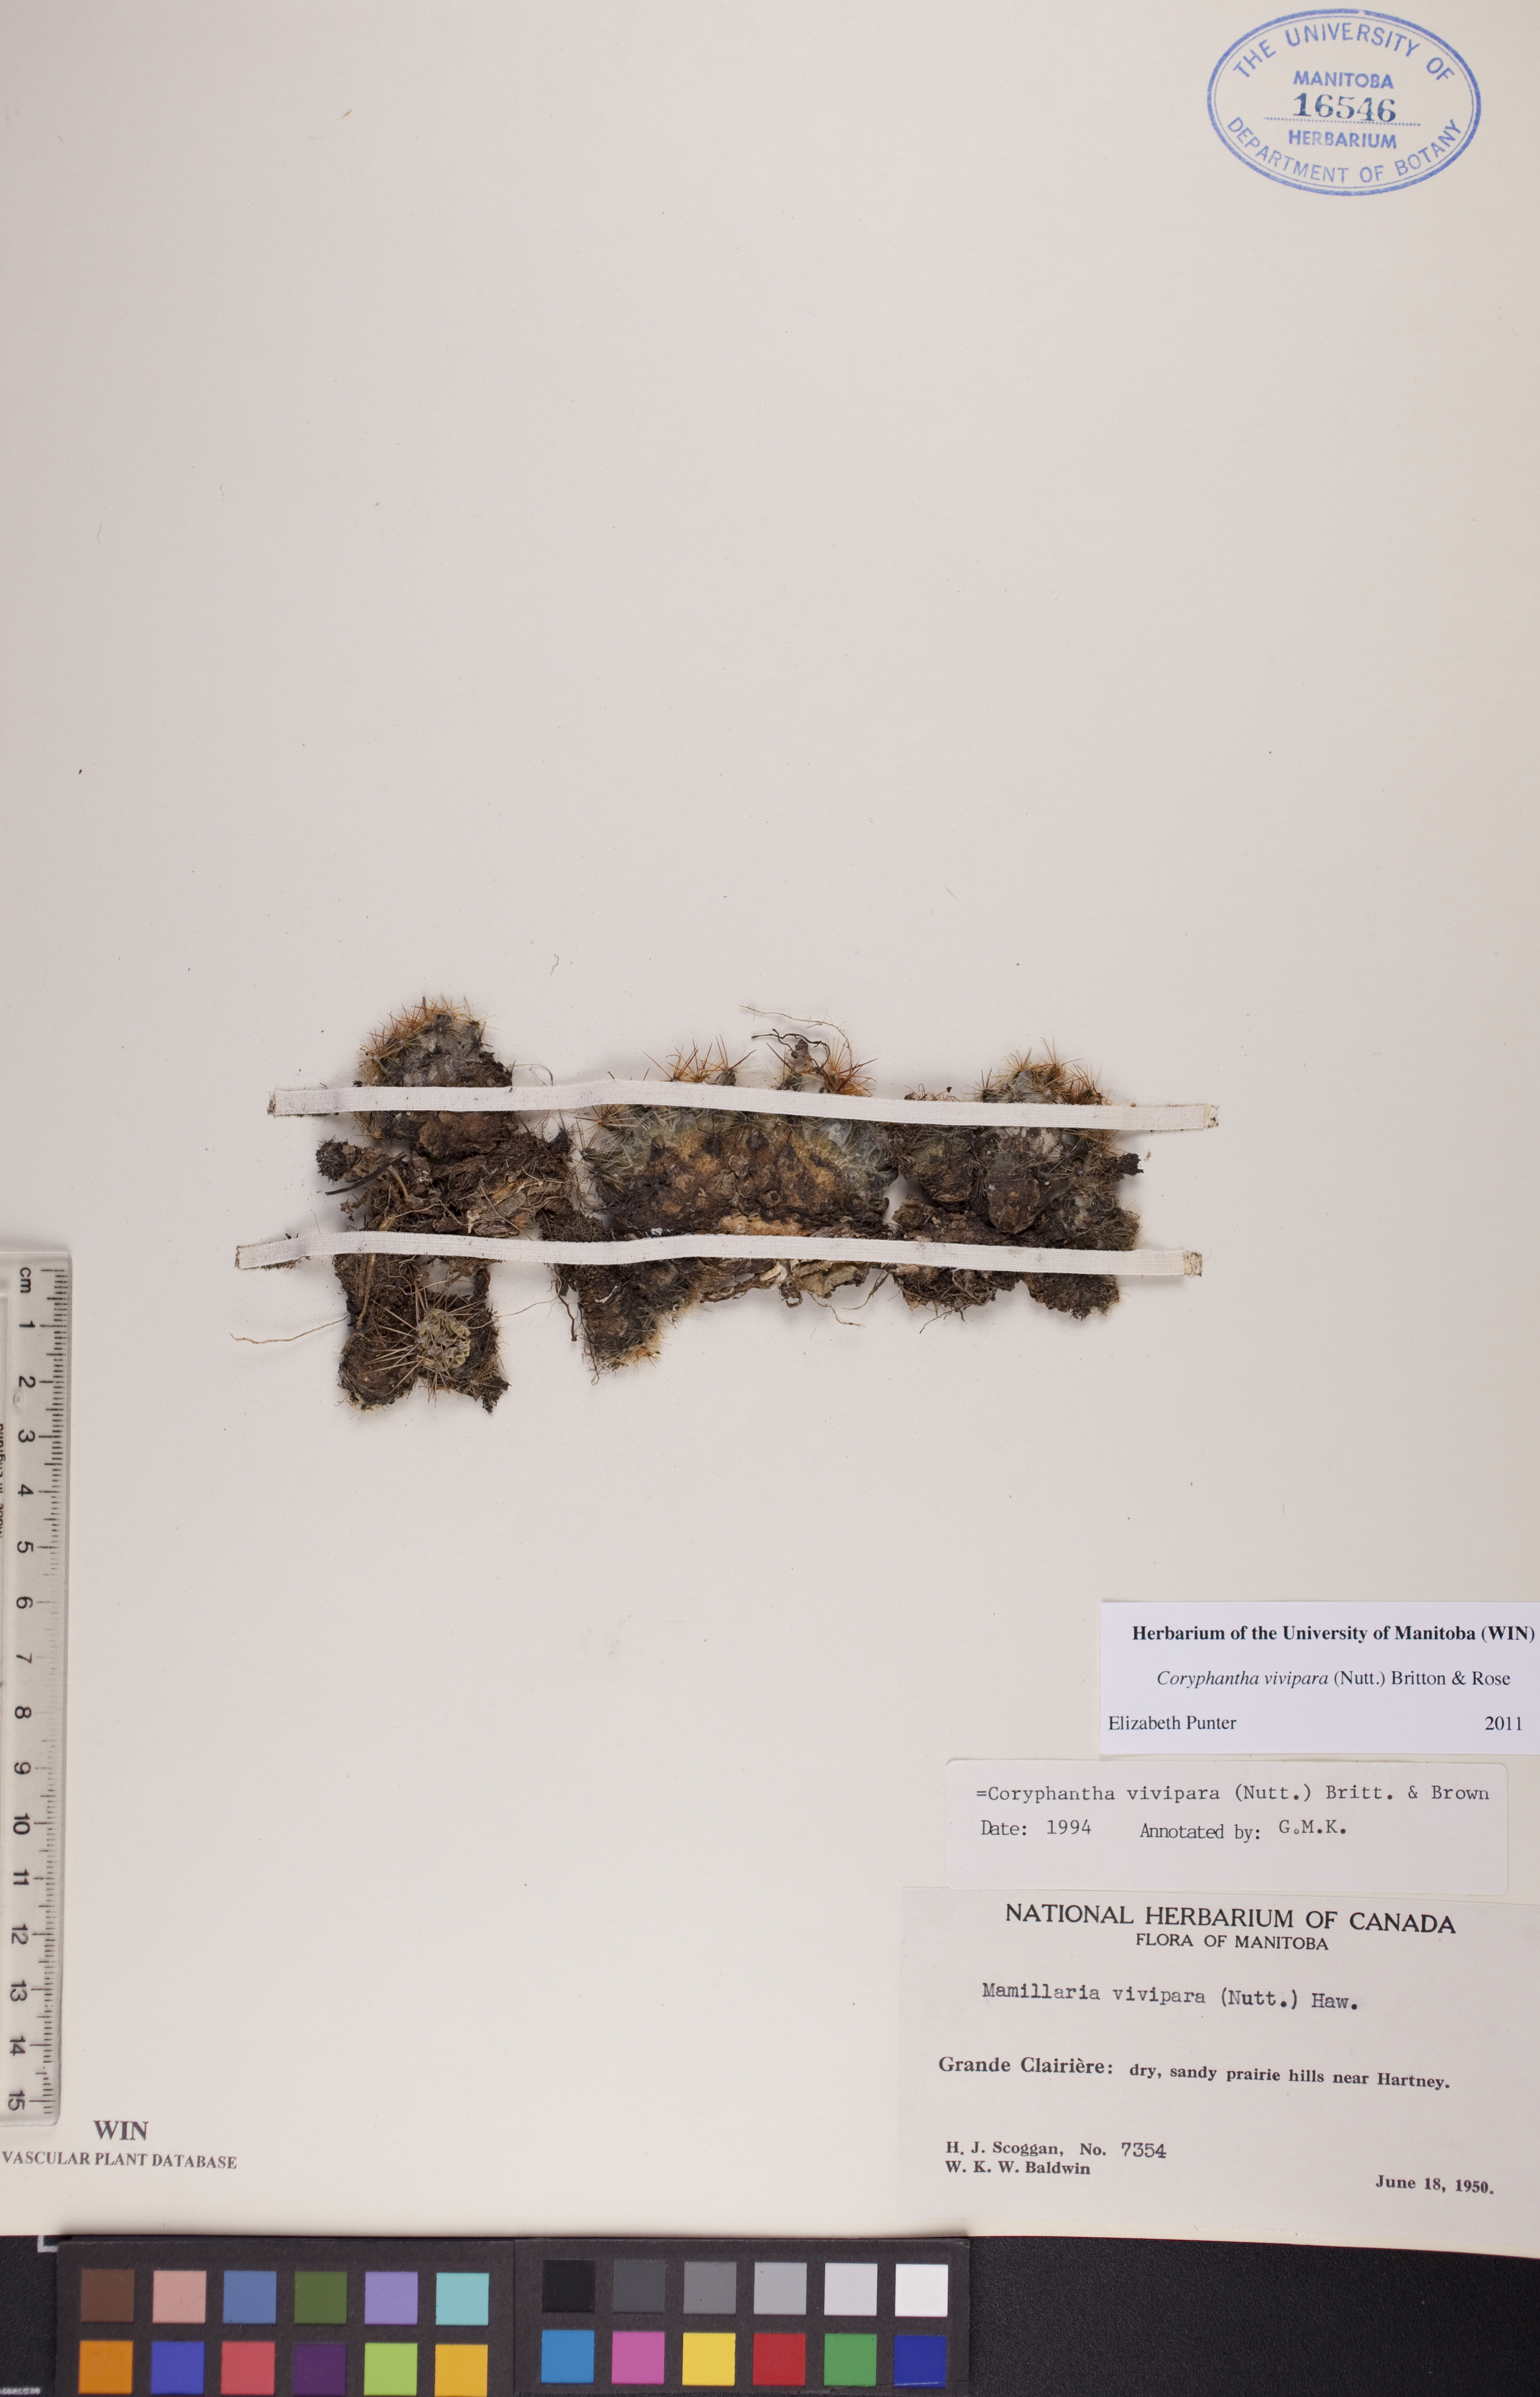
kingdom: Plantae
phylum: Tracheophyta
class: Magnoliopsida
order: Caryophyllales
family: Cactaceae
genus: Pelecyphora
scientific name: Pelecyphora vivipara
